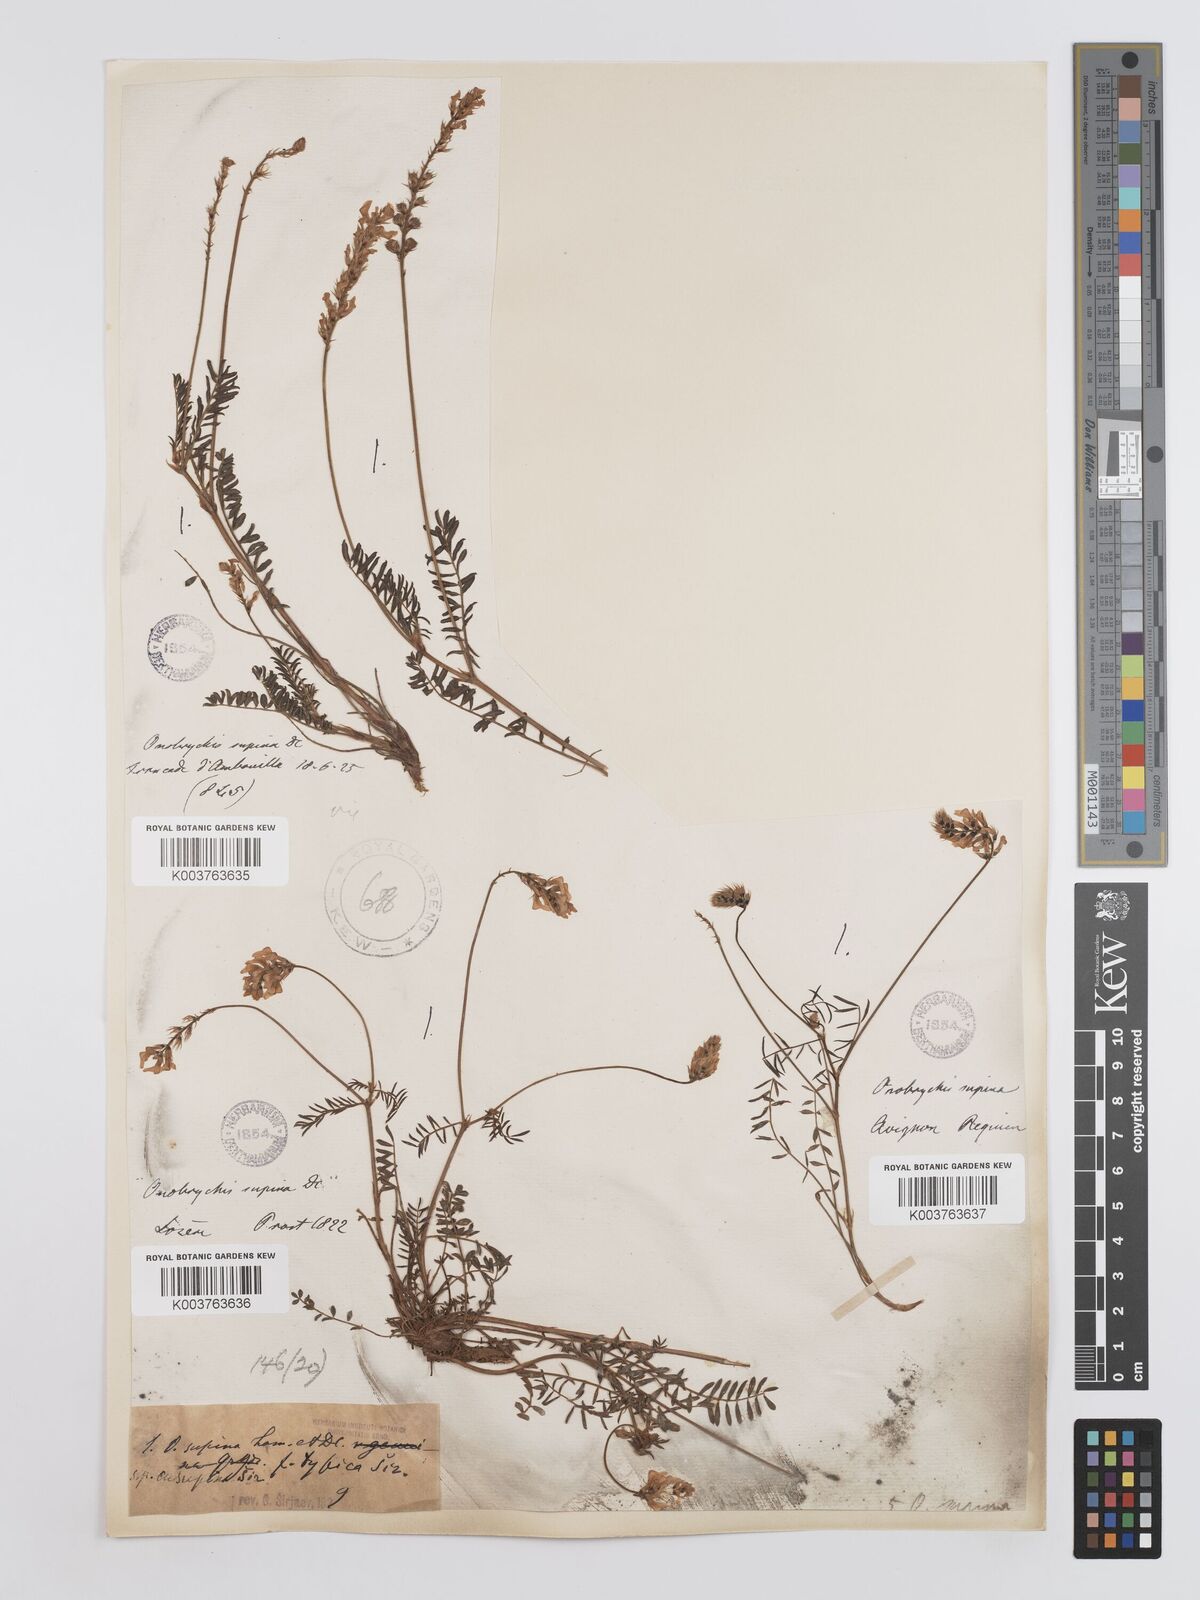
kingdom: Plantae
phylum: Tracheophyta
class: Magnoliopsida
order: Fabales
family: Fabaceae
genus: Onobrychis
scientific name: Onobrychis supina
